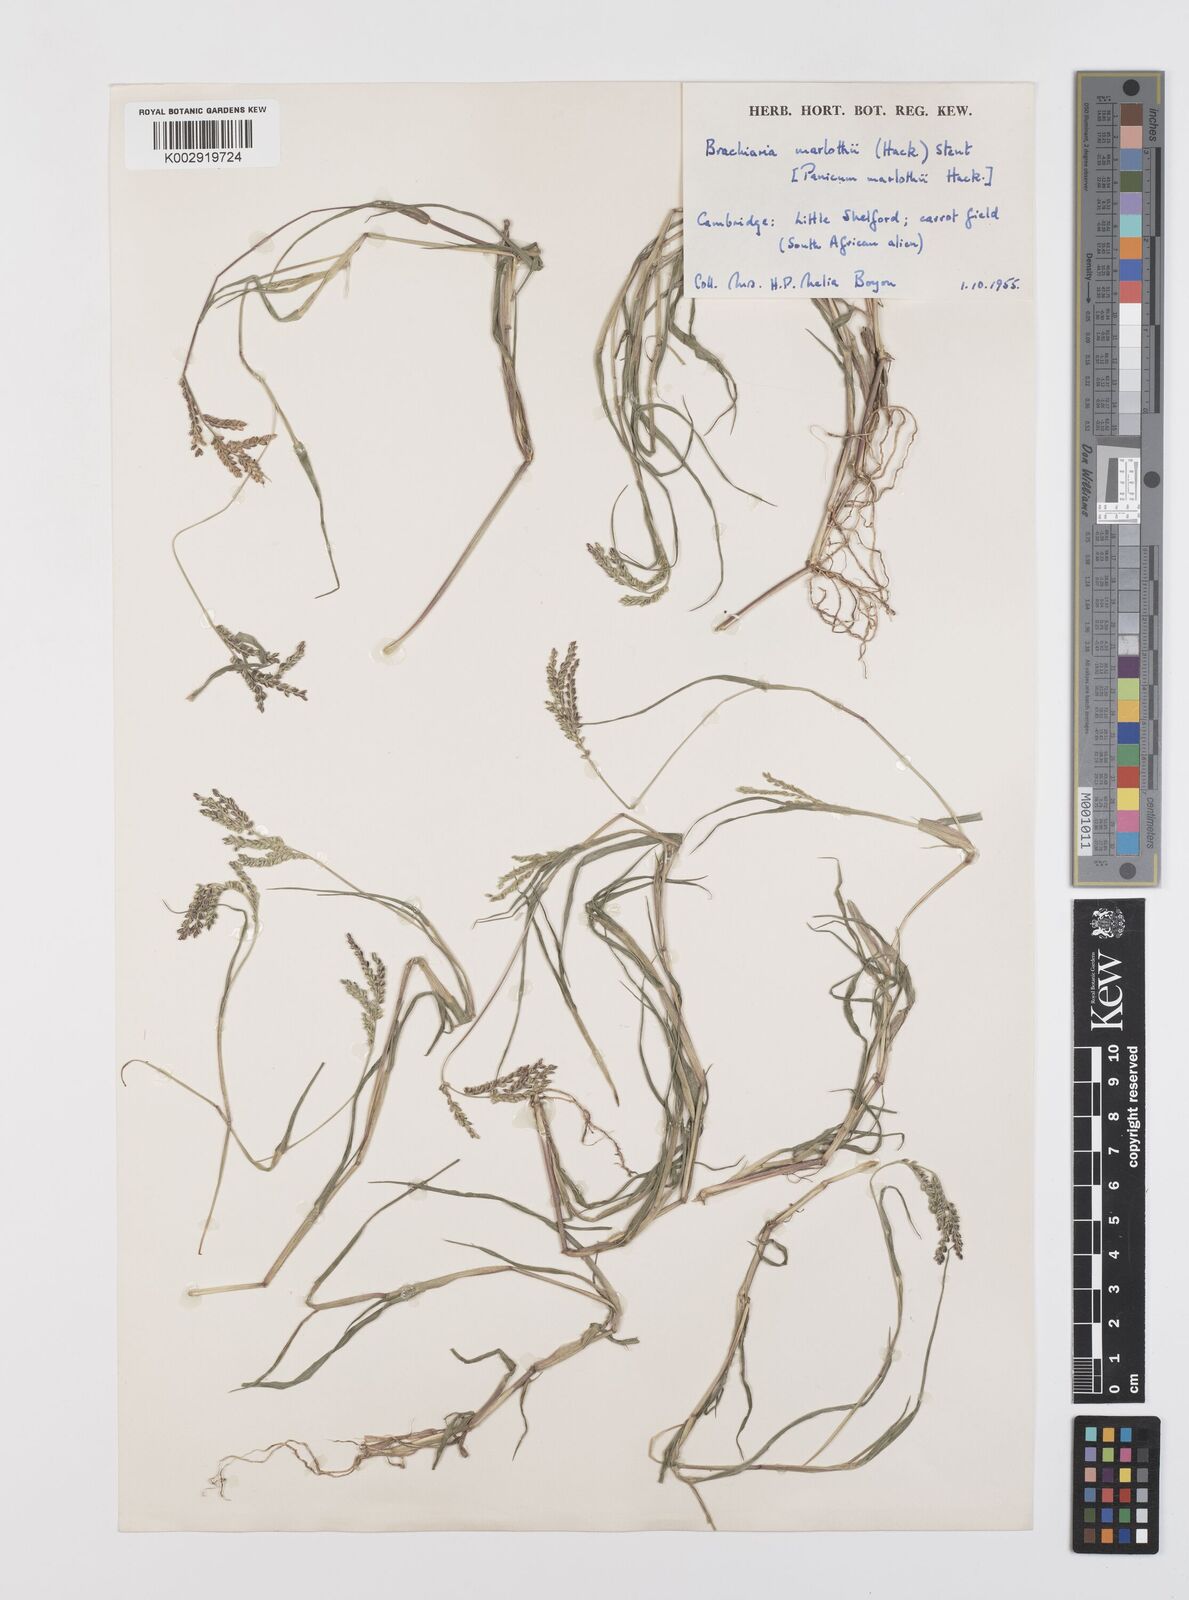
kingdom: Plantae
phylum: Tracheophyta
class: Liliopsida
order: Poales
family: Poaceae
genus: Urochloa
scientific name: Urochloa Brachiaria marlothii
